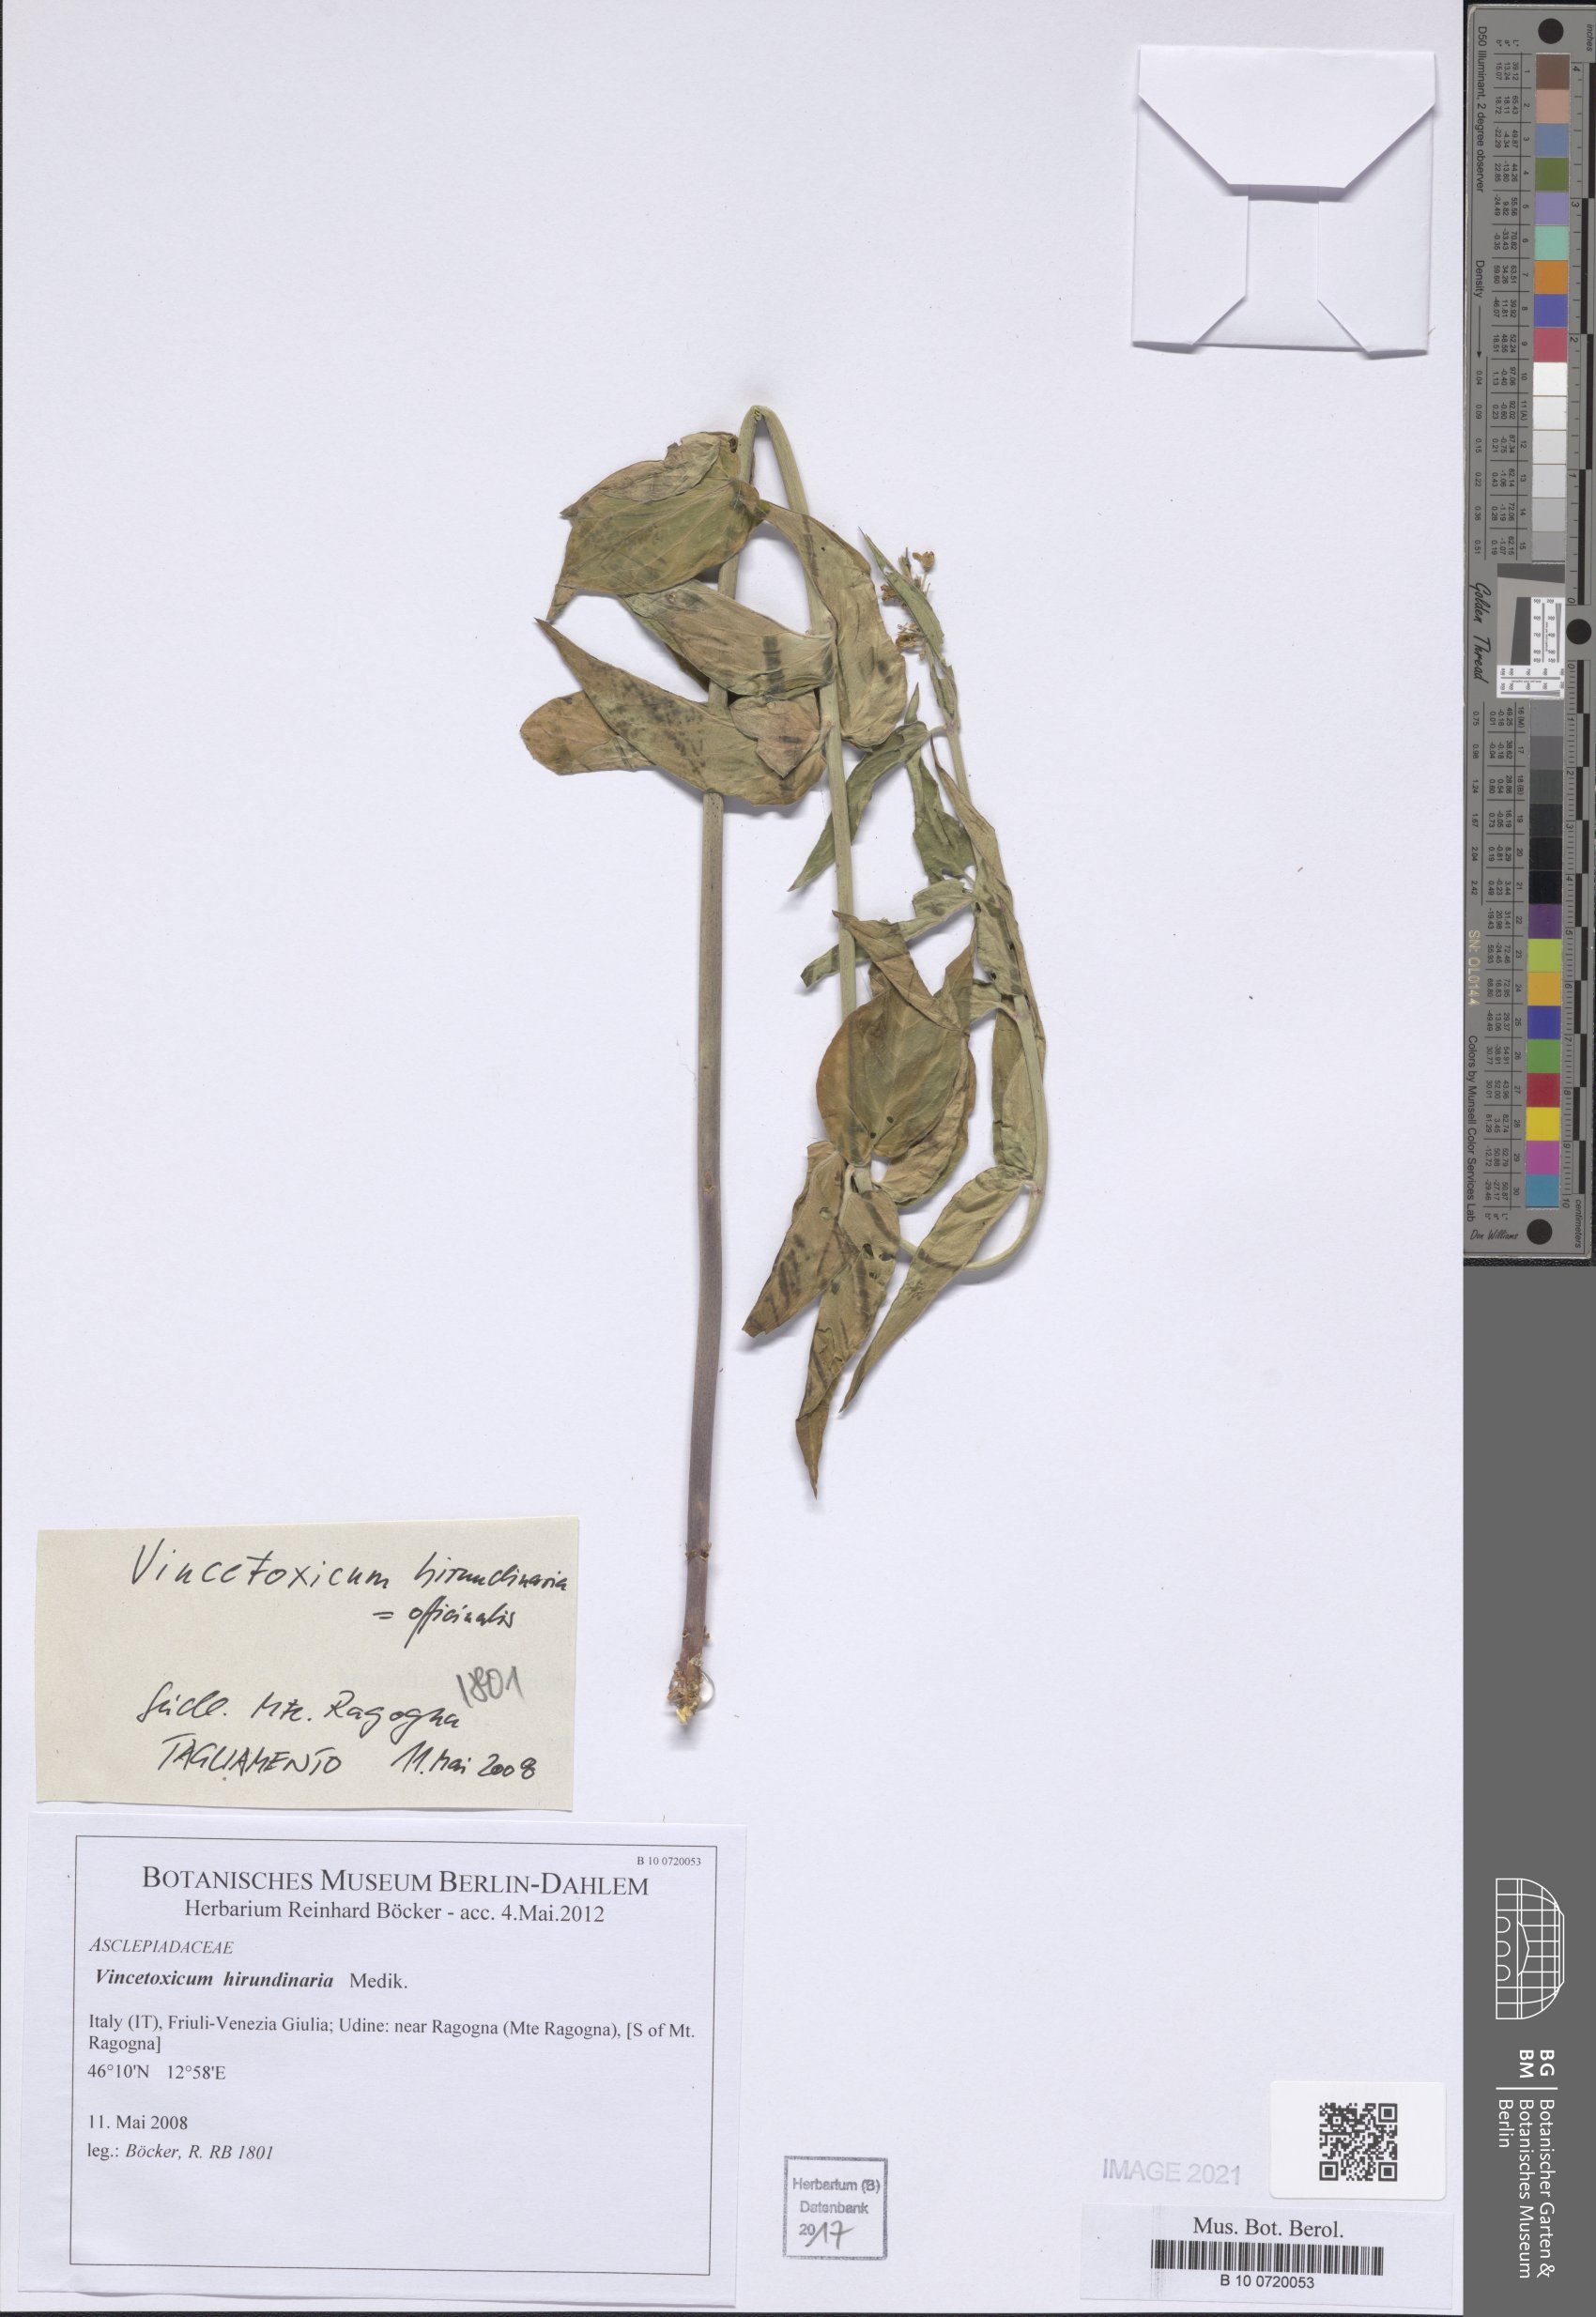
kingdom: Plantae
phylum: Tracheophyta
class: Magnoliopsida
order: Gentianales
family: Apocynaceae
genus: Vincetoxicum
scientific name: Vincetoxicum hirundinaria
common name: White swallowwort
